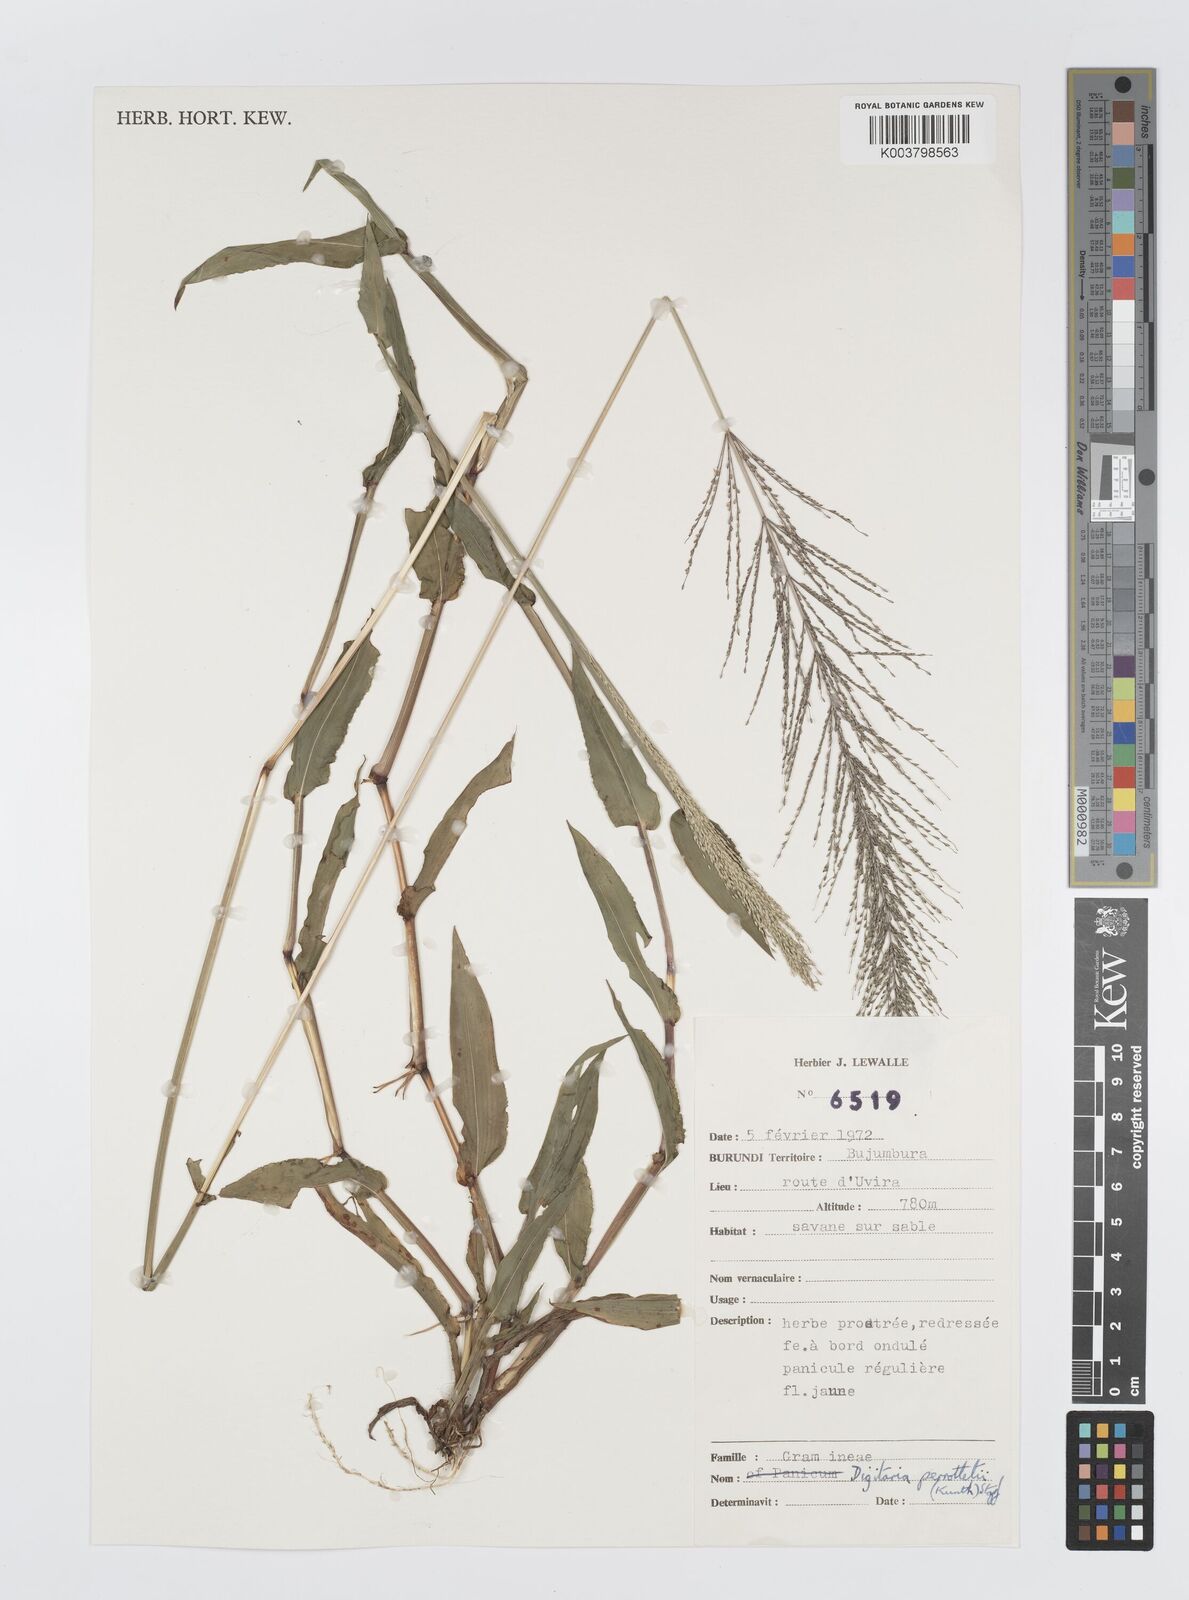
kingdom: Plantae
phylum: Tracheophyta
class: Liliopsida
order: Poales
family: Poaceae
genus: Digitaria
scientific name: Digitaria perrottetii
